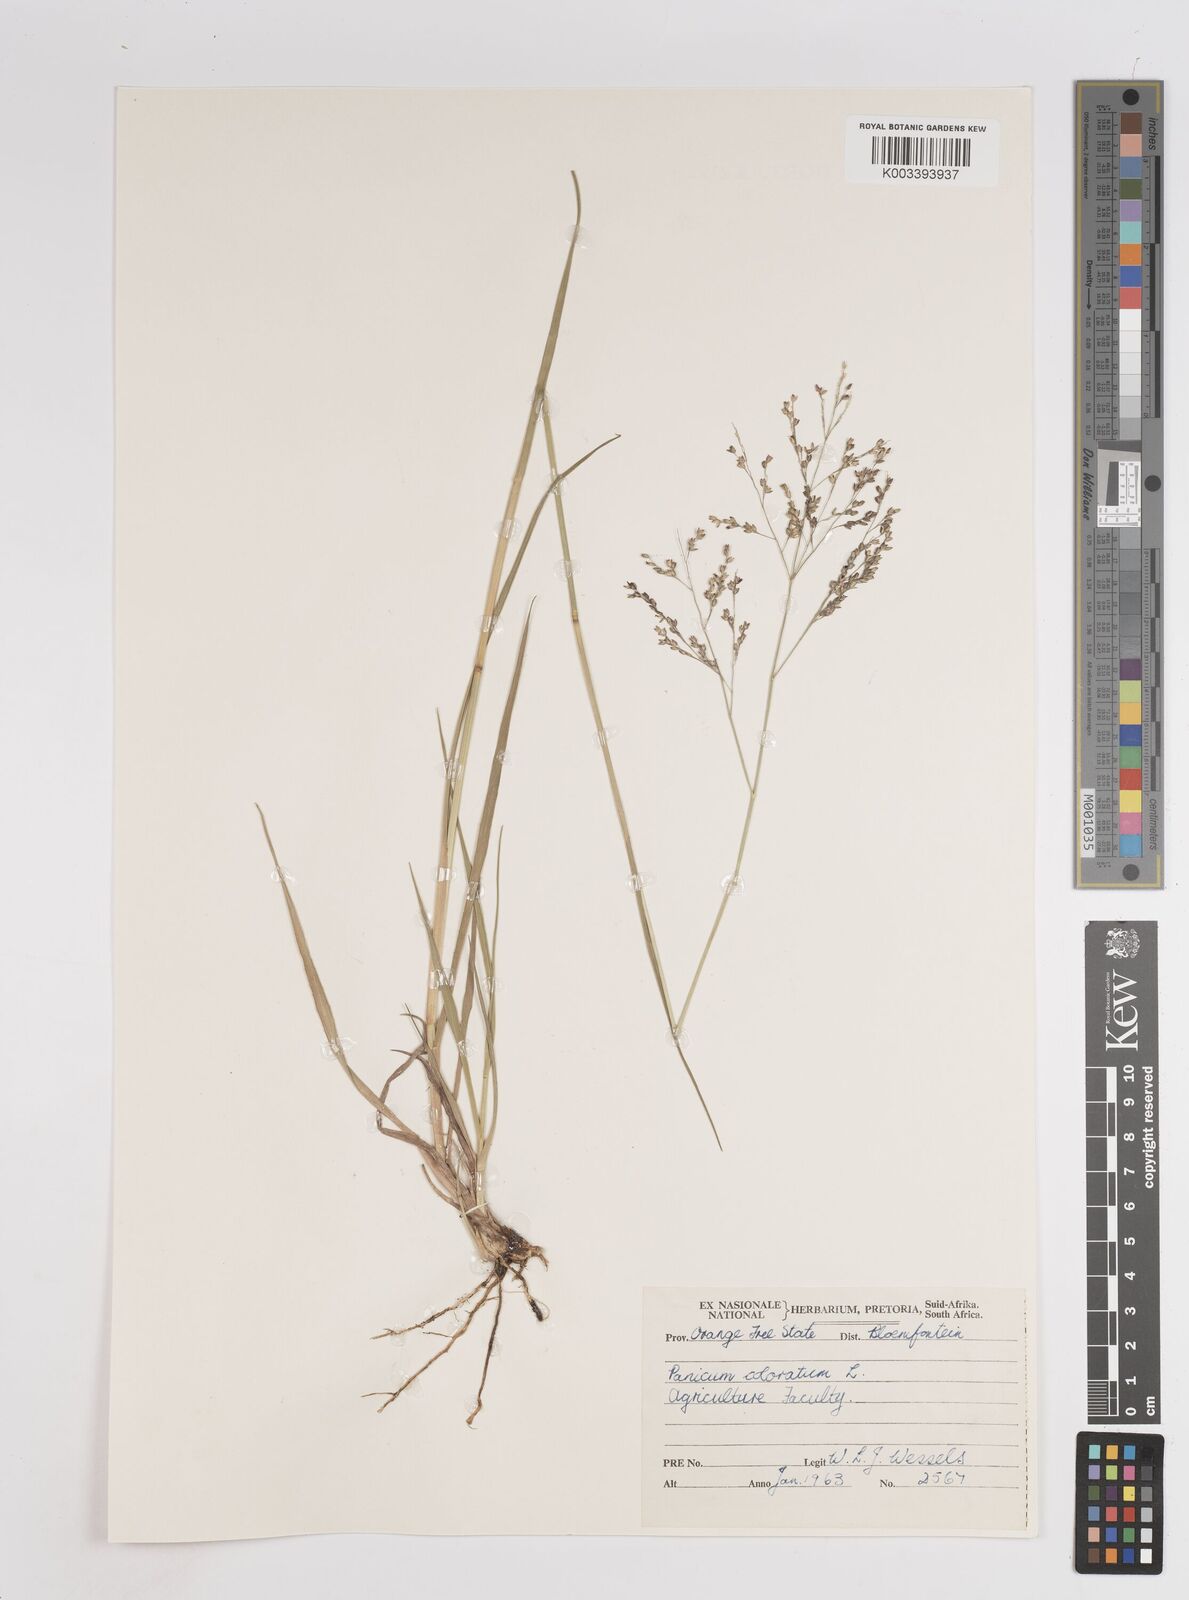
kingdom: Plantae
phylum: Tracheophyta
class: Liliopsida
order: Poales
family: Poaceae
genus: Panicum
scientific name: Panicum coloratum
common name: Kleingrass
